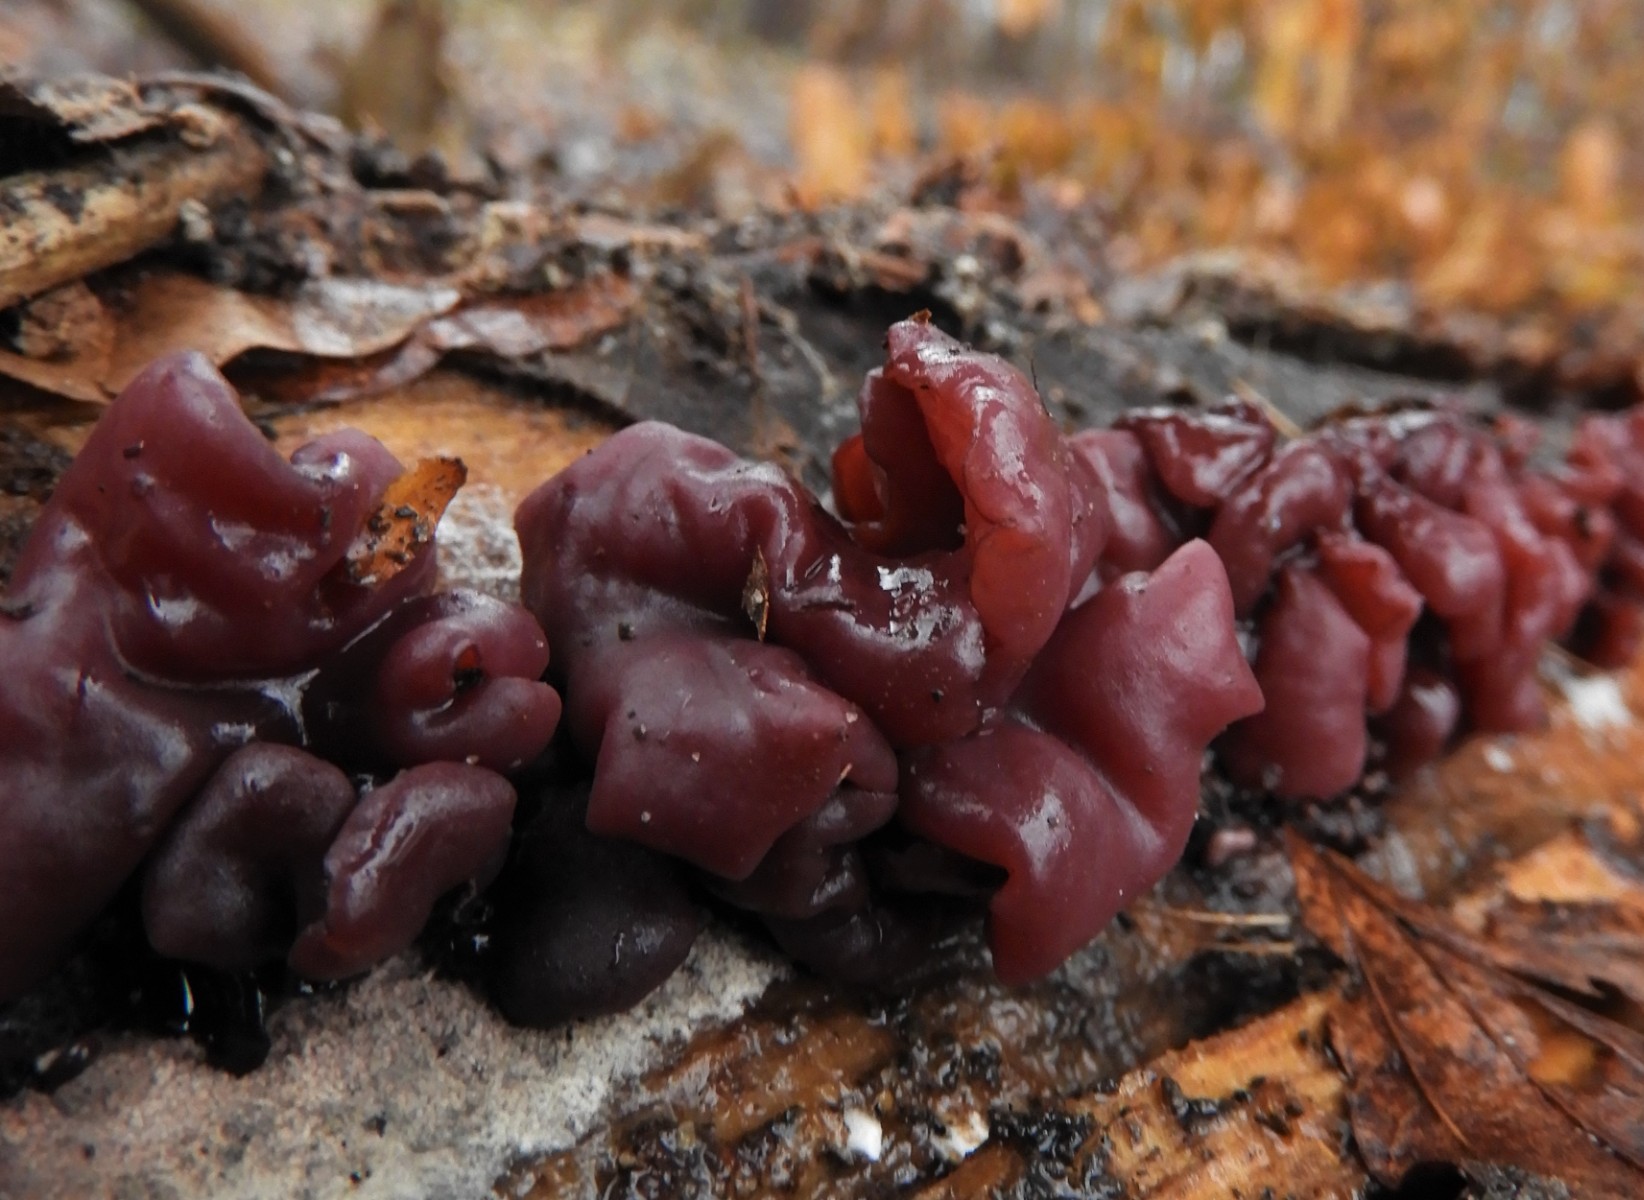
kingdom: Fungi
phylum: Ascomycota
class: Leotiomycetes
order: Helotiales
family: Gelatinodiscaceae
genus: Ascocoryne
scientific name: Ascocoryne cylichnium
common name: stor sejskive
